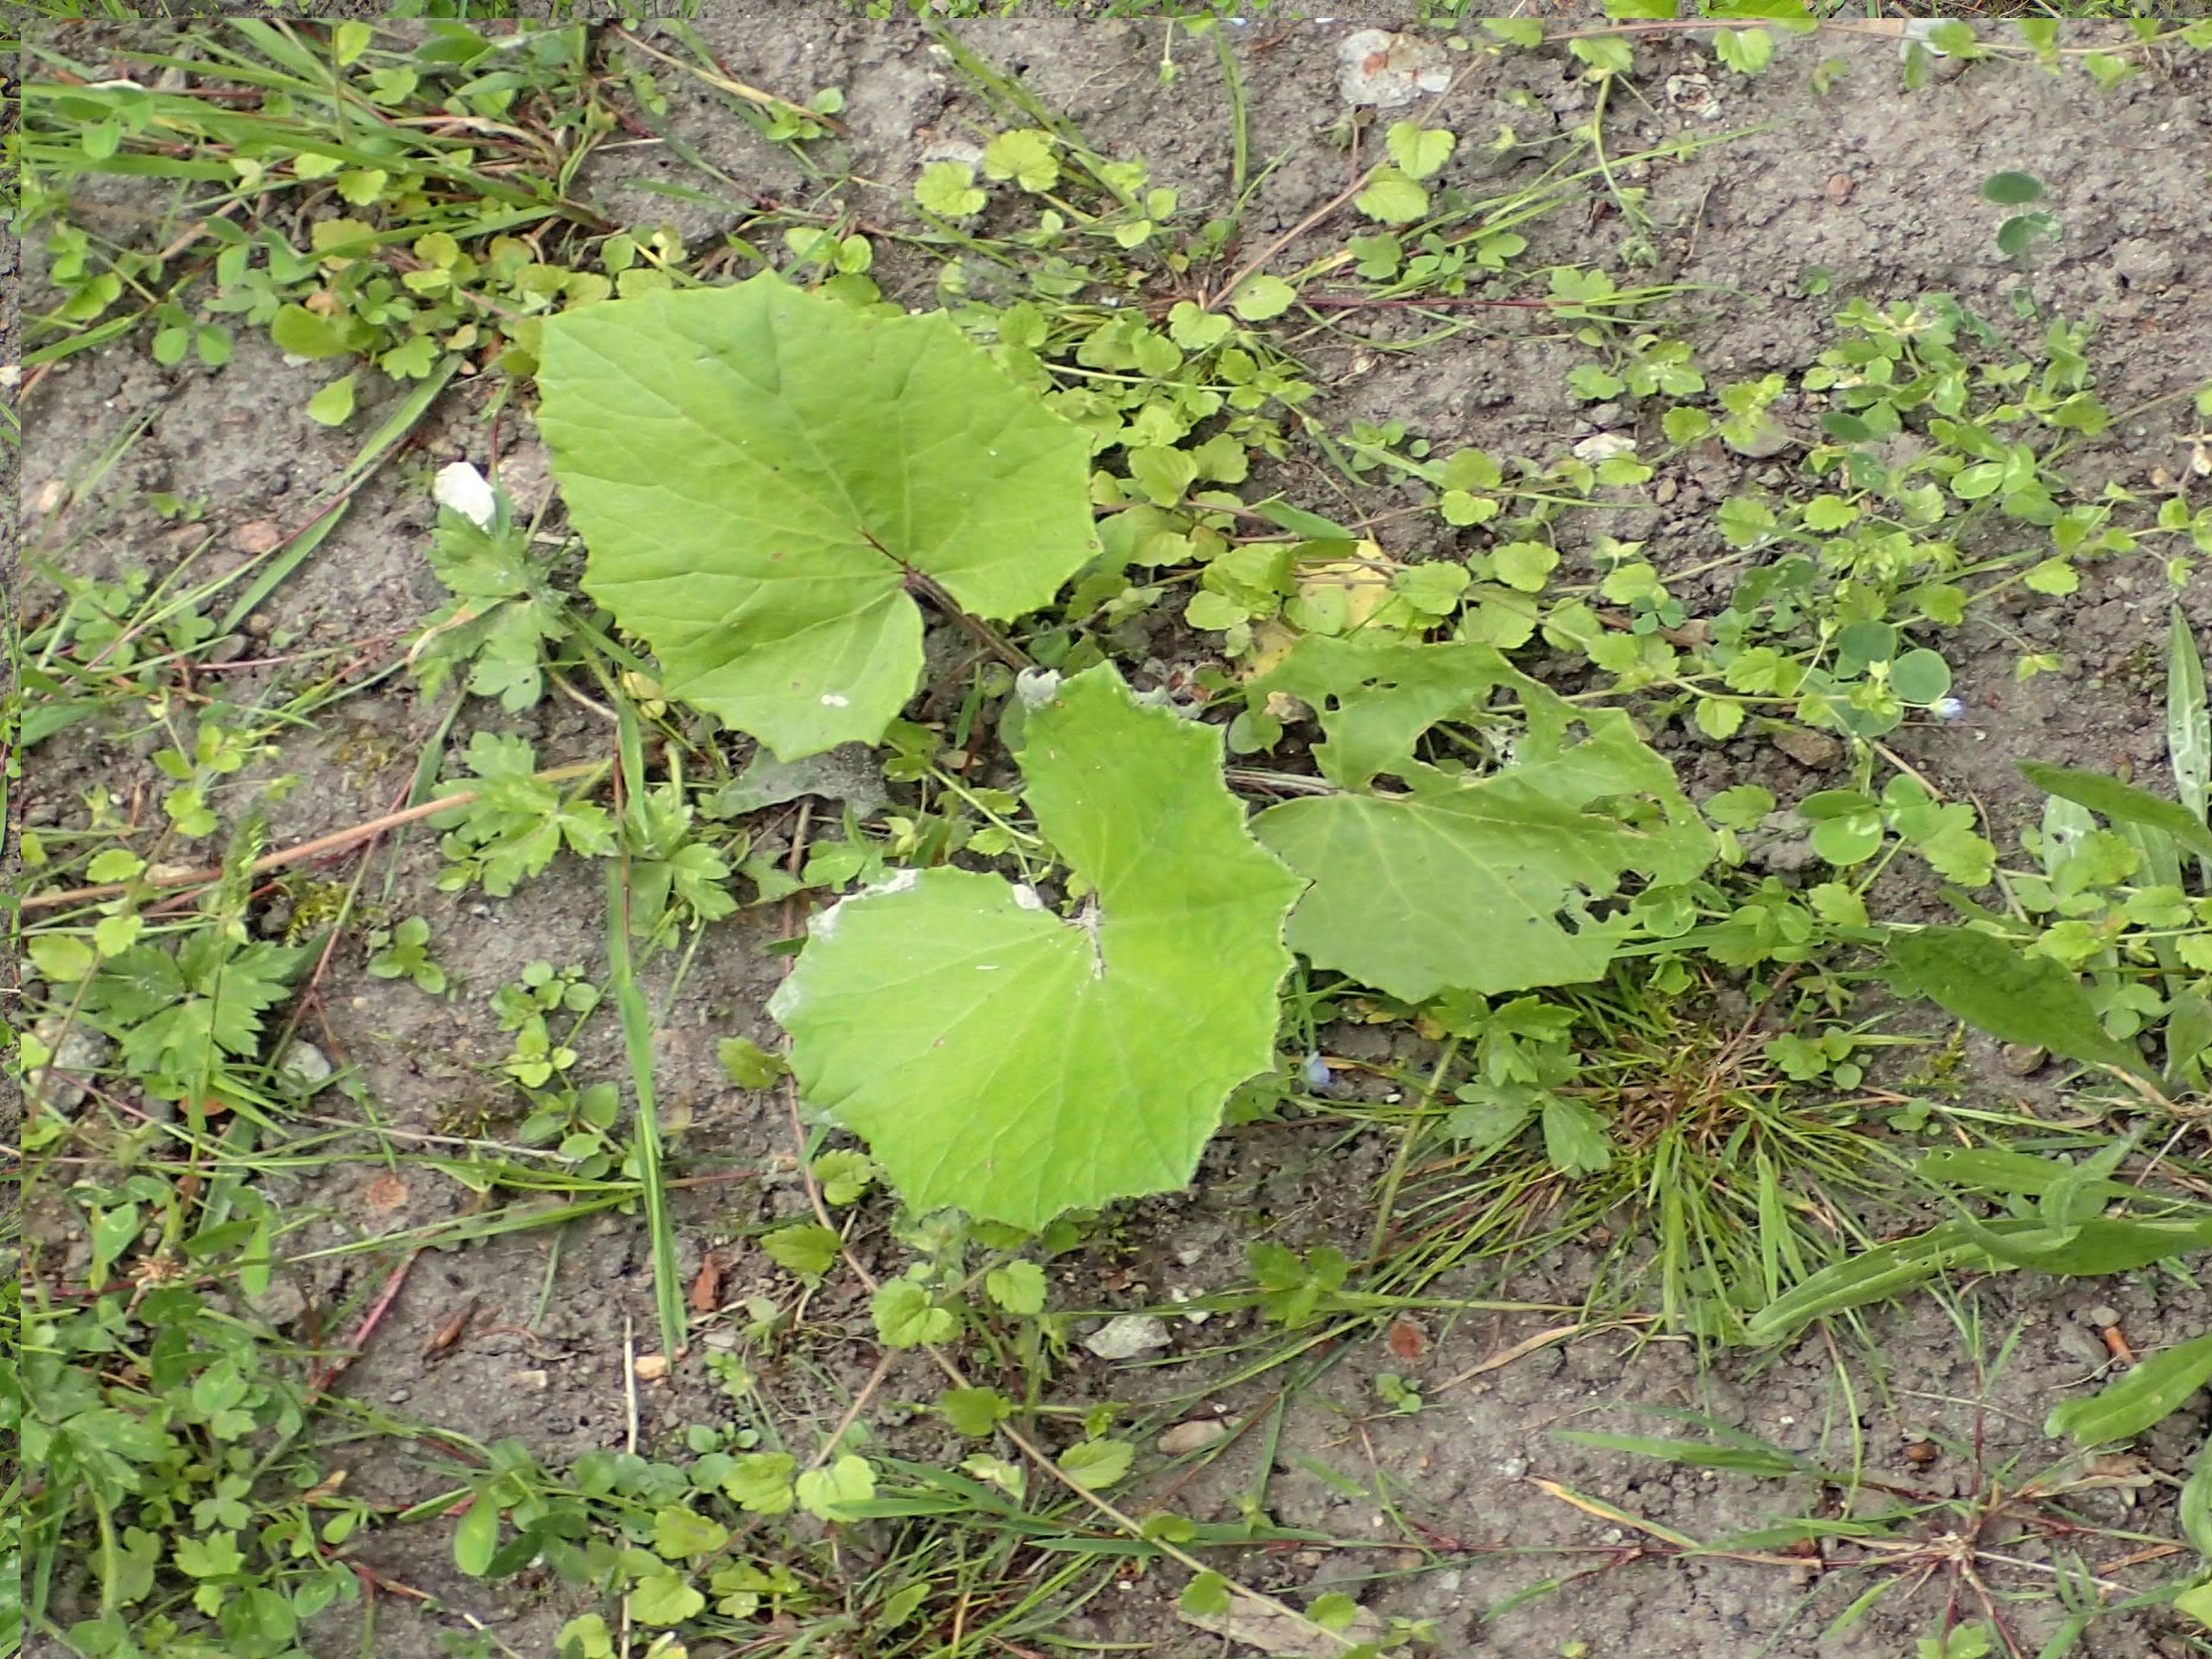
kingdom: Plantae
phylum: Tracheophyta
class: Magnoliopsida
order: Asterales
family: Asteraceae
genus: Tussilago
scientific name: Tussilago farfara
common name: Følfod
